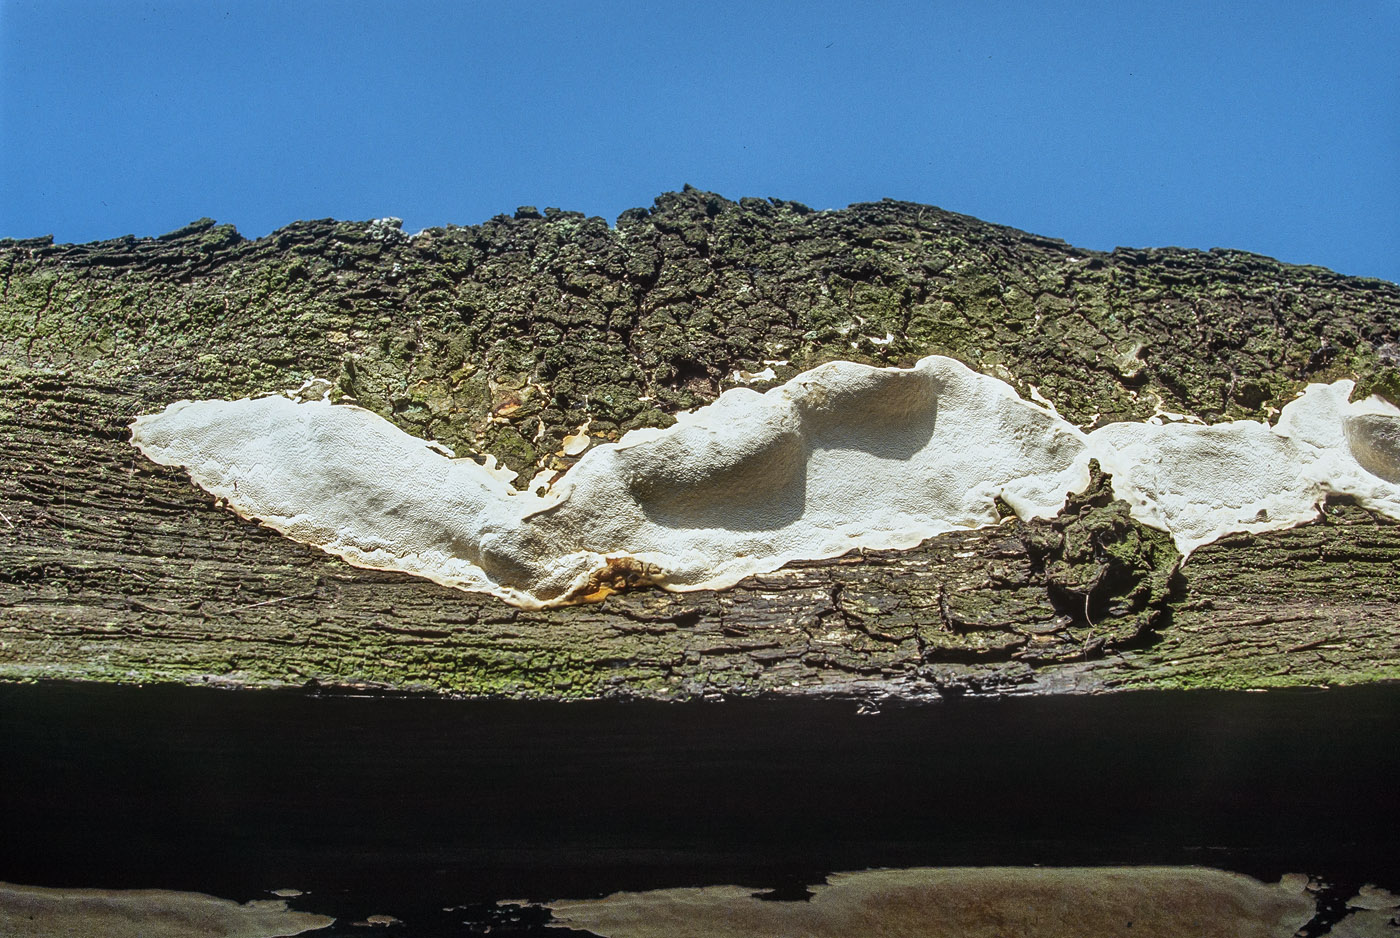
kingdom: Fungi
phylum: Basidiomycota
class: Agaricomycetes
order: Polyporales
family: Polyporaceae
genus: Perenniporia
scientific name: Perenniporia medulla-panis
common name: krumme-kanelporesvamp
